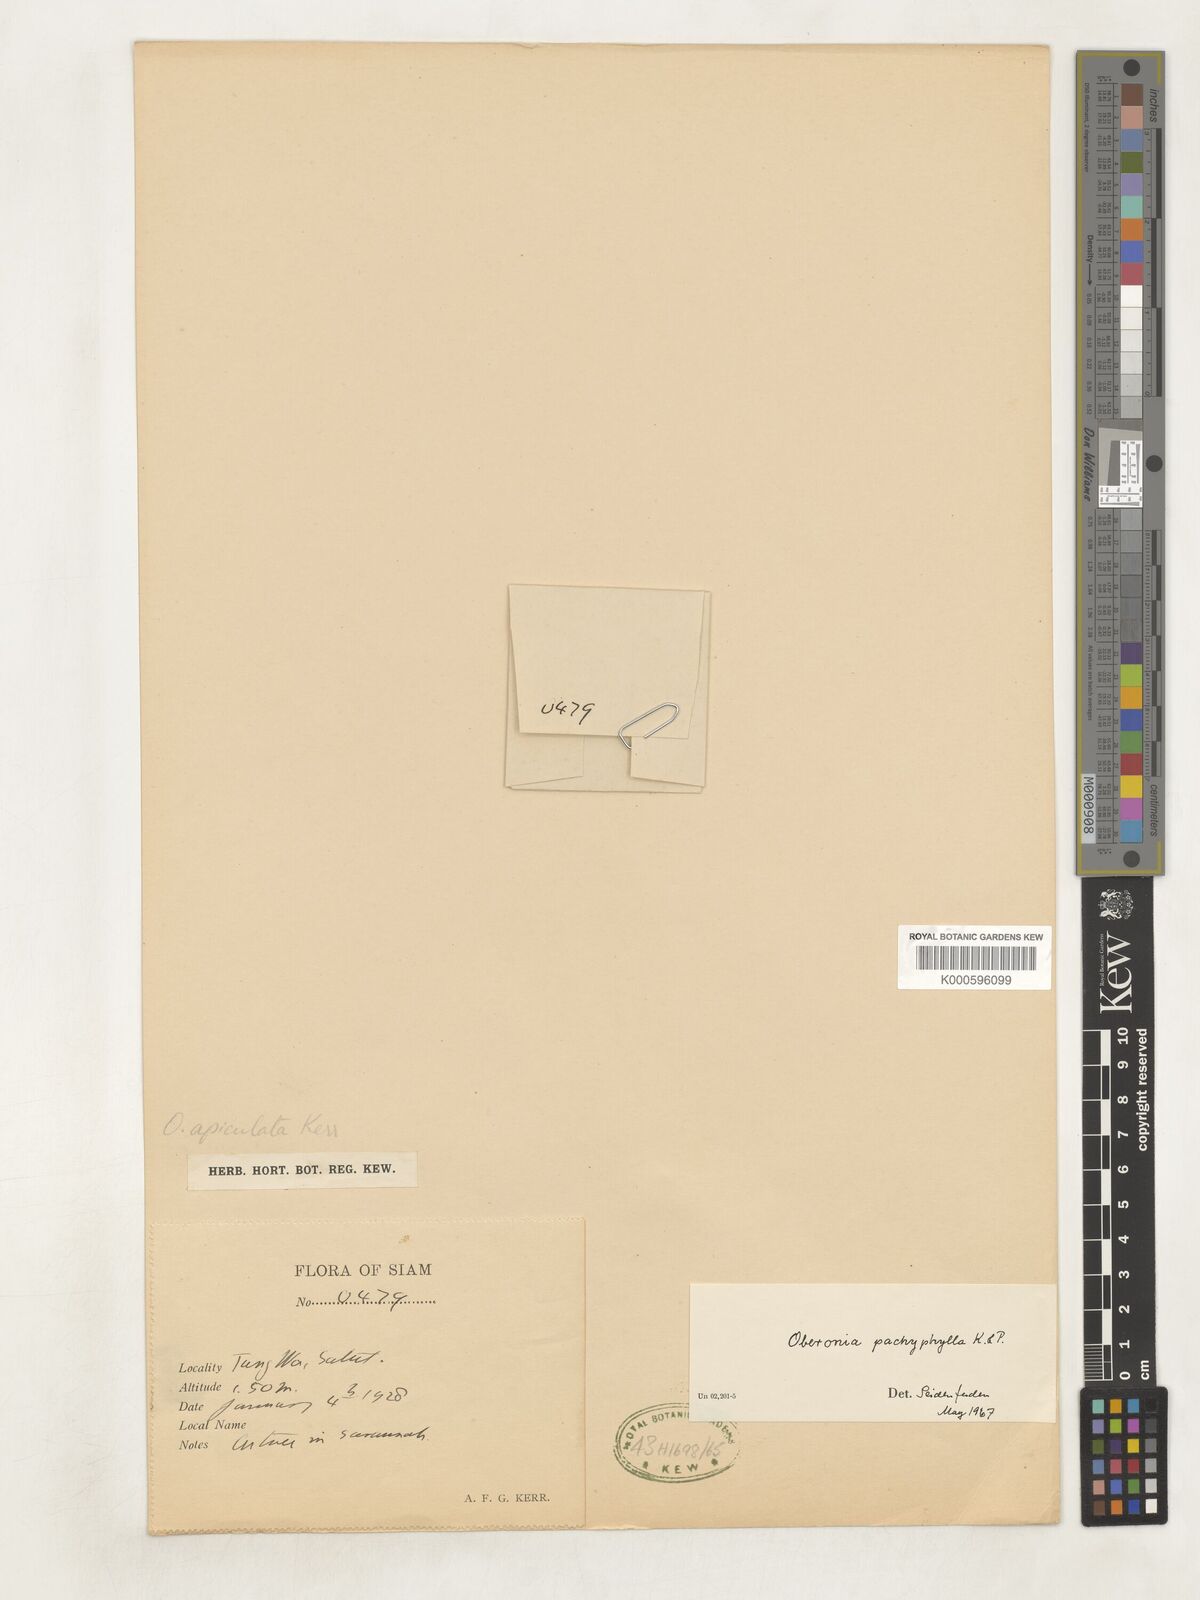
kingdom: Plantae
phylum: Tracheophyta
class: Liliopsida
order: Asparagales
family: Orchidaceae
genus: Oberonia
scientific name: Oberonia pachyphylla
